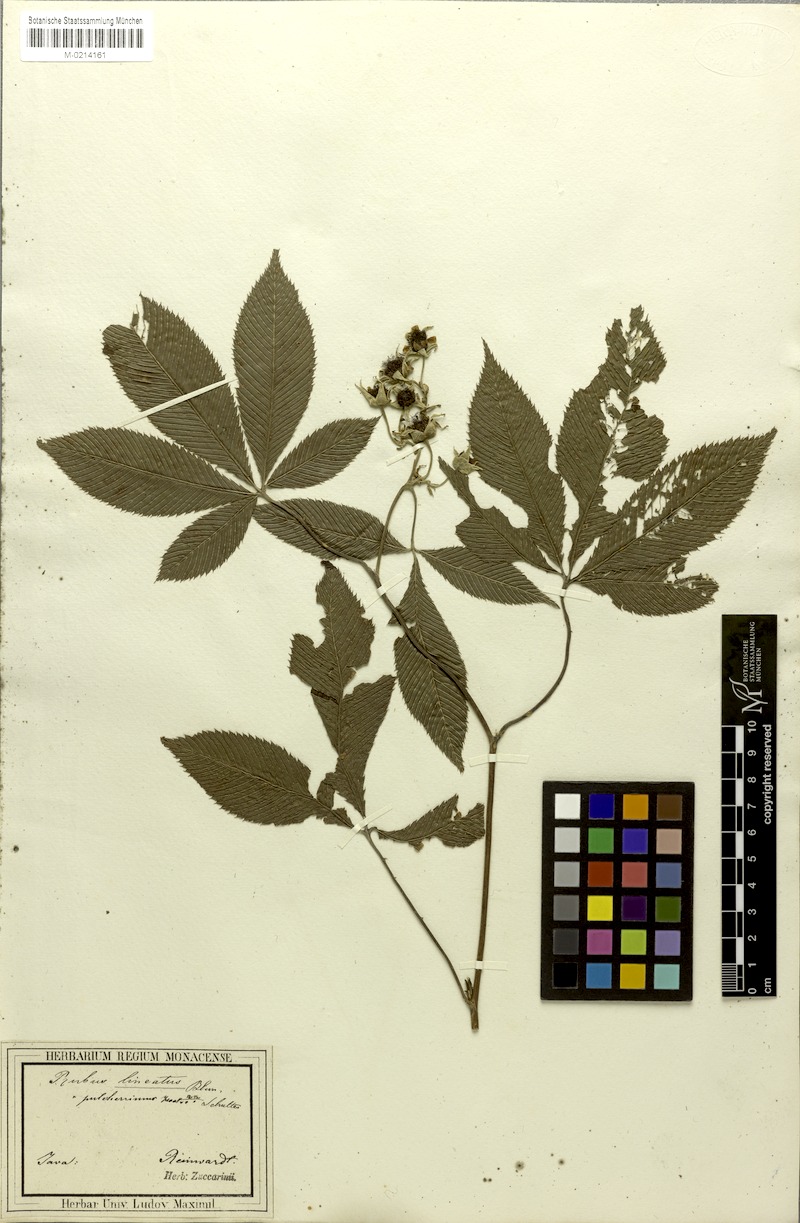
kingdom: Plantae
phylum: Tracheophyta
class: Magnoliopsida
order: Rosales
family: Rosaceae
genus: Rubus
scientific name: Rubus lineatus
